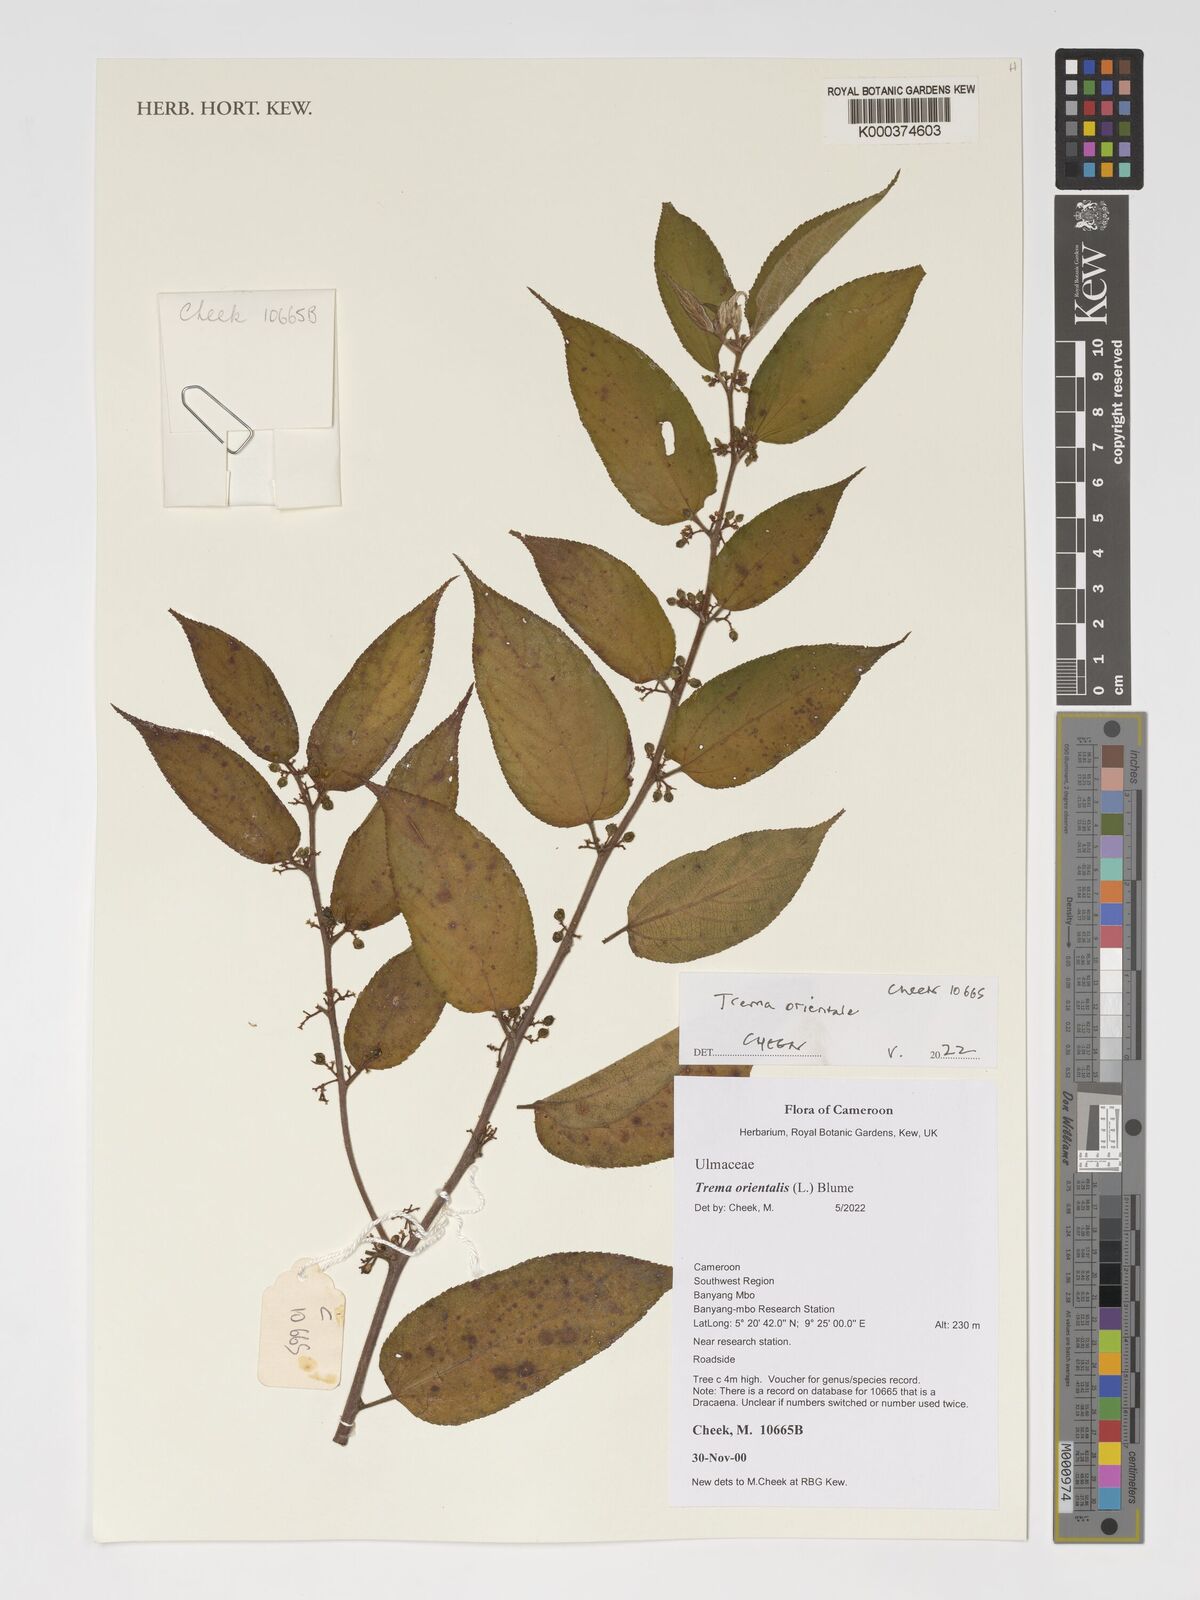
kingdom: Plantae
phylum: Tracheophyta
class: Magnoliopsida
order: Rosales
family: Cannabaceae
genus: Trema
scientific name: Trema orientale
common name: Indian charcoal tree
